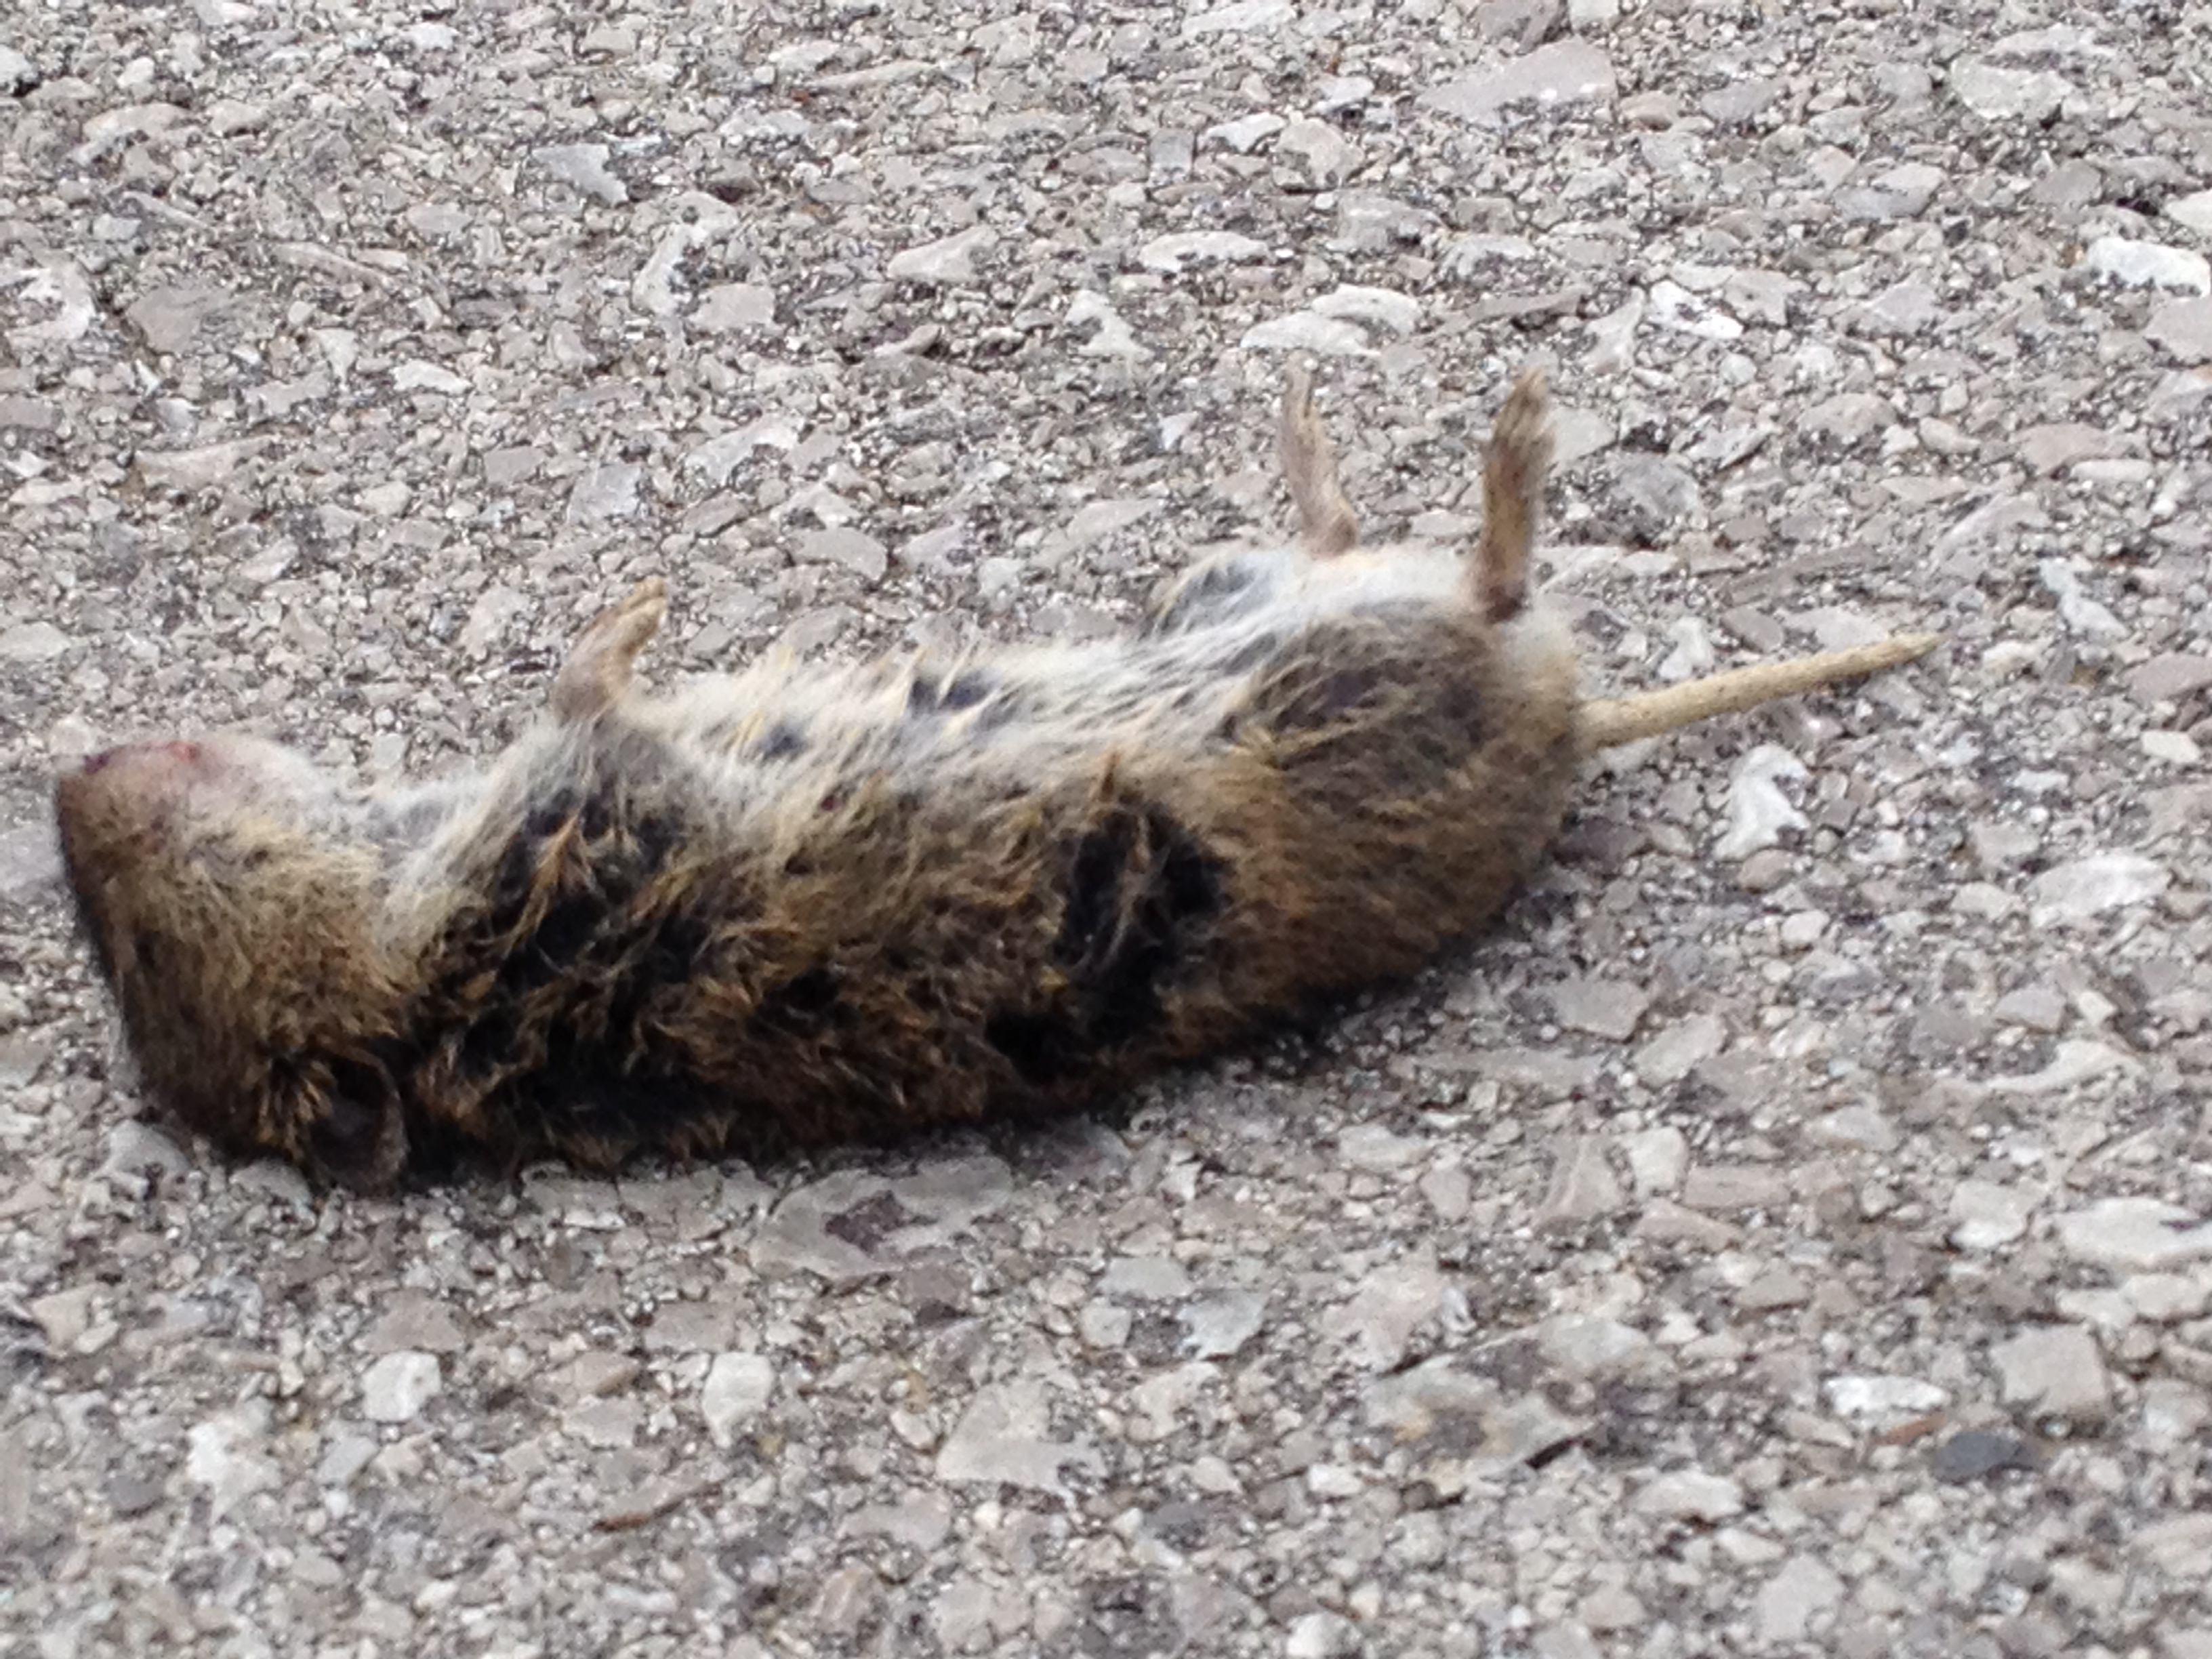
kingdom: Animalia
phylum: Chordata
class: Mammalia
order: Rodentia
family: Cricetidae
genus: Microtus
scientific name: Microtus
